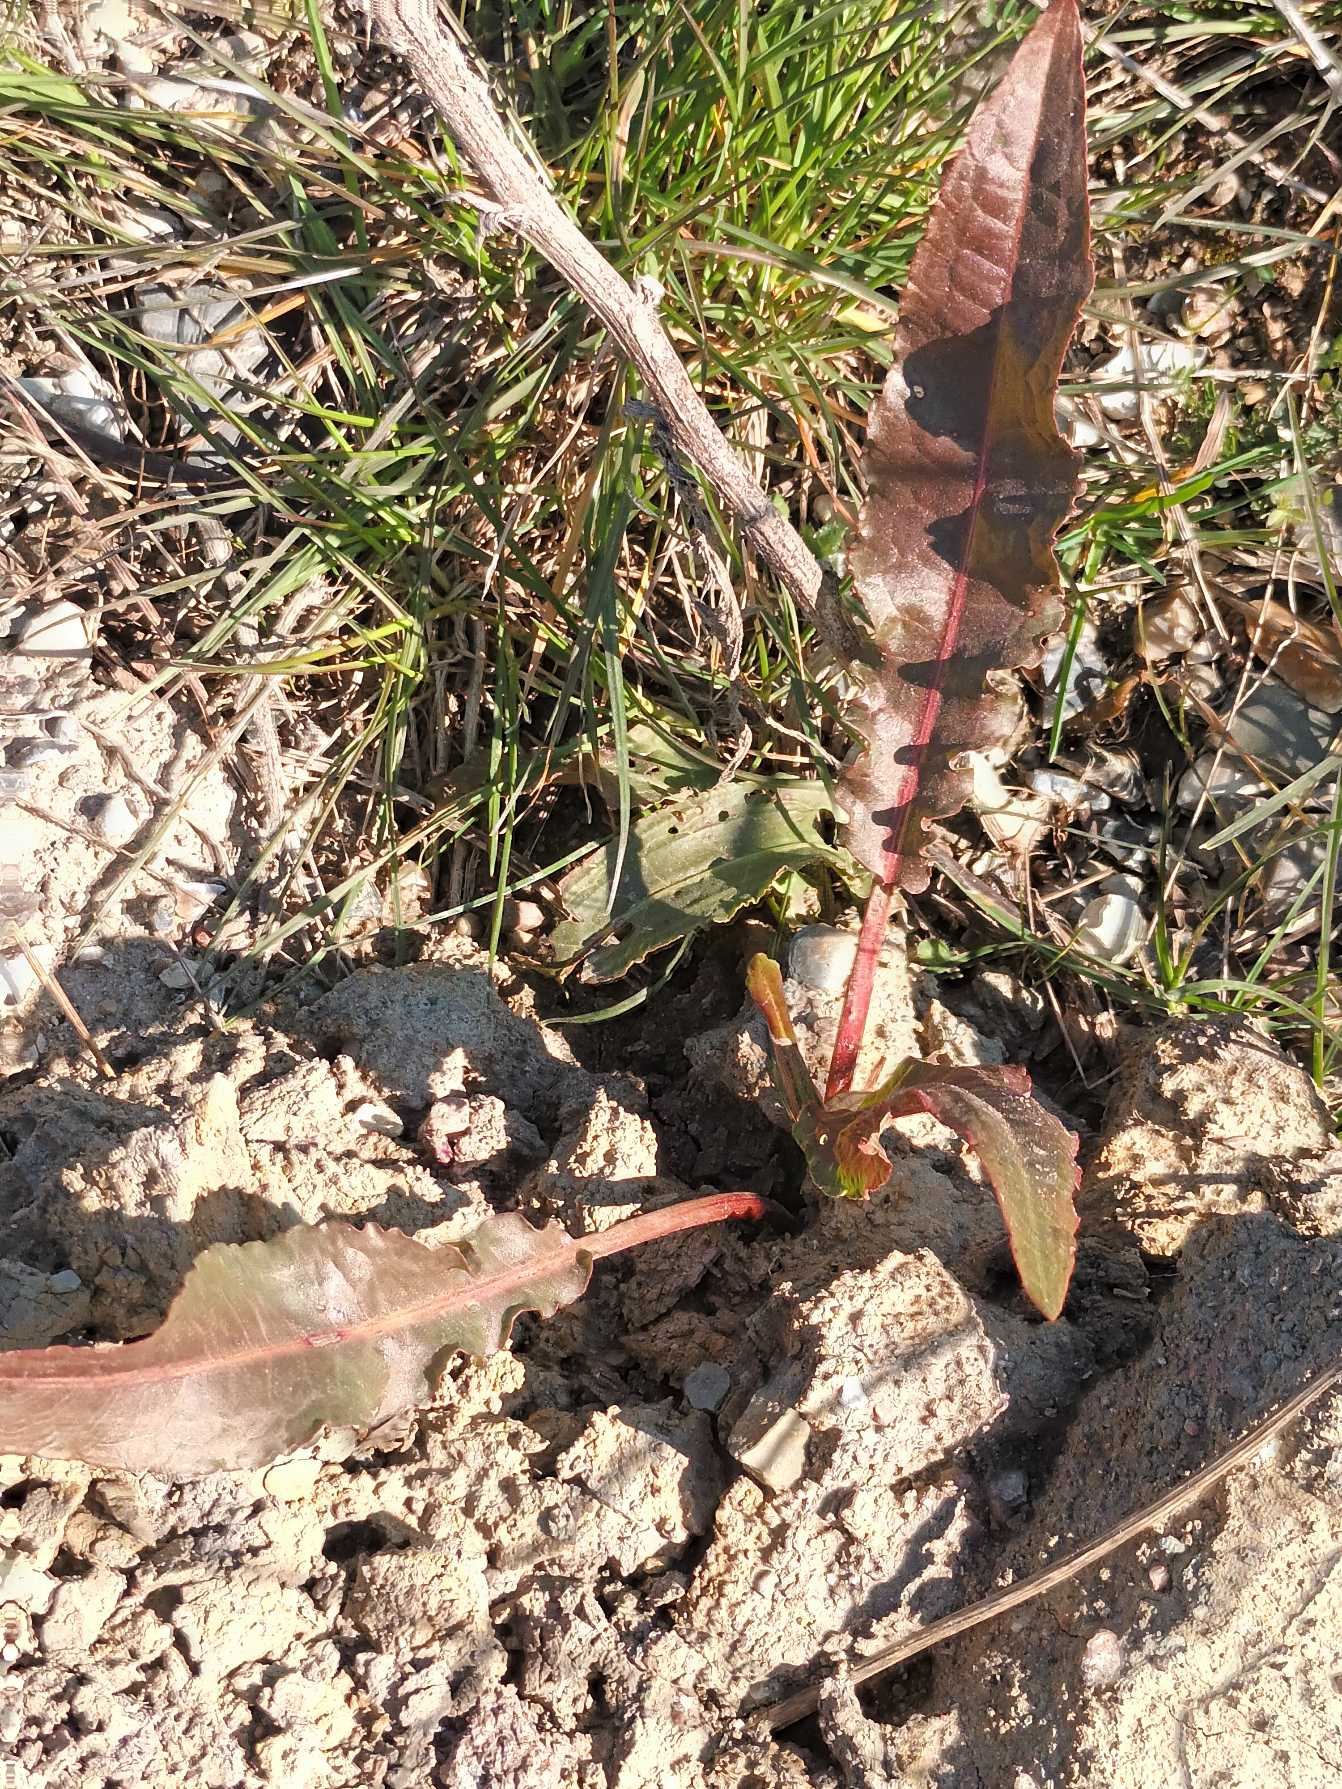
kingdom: Plantae
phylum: Tracheophyta
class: Magnoliopsida
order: Caryophyllales
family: Polygonaceae
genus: Rumex
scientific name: Rumex crispus
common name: Kruset skræppe
